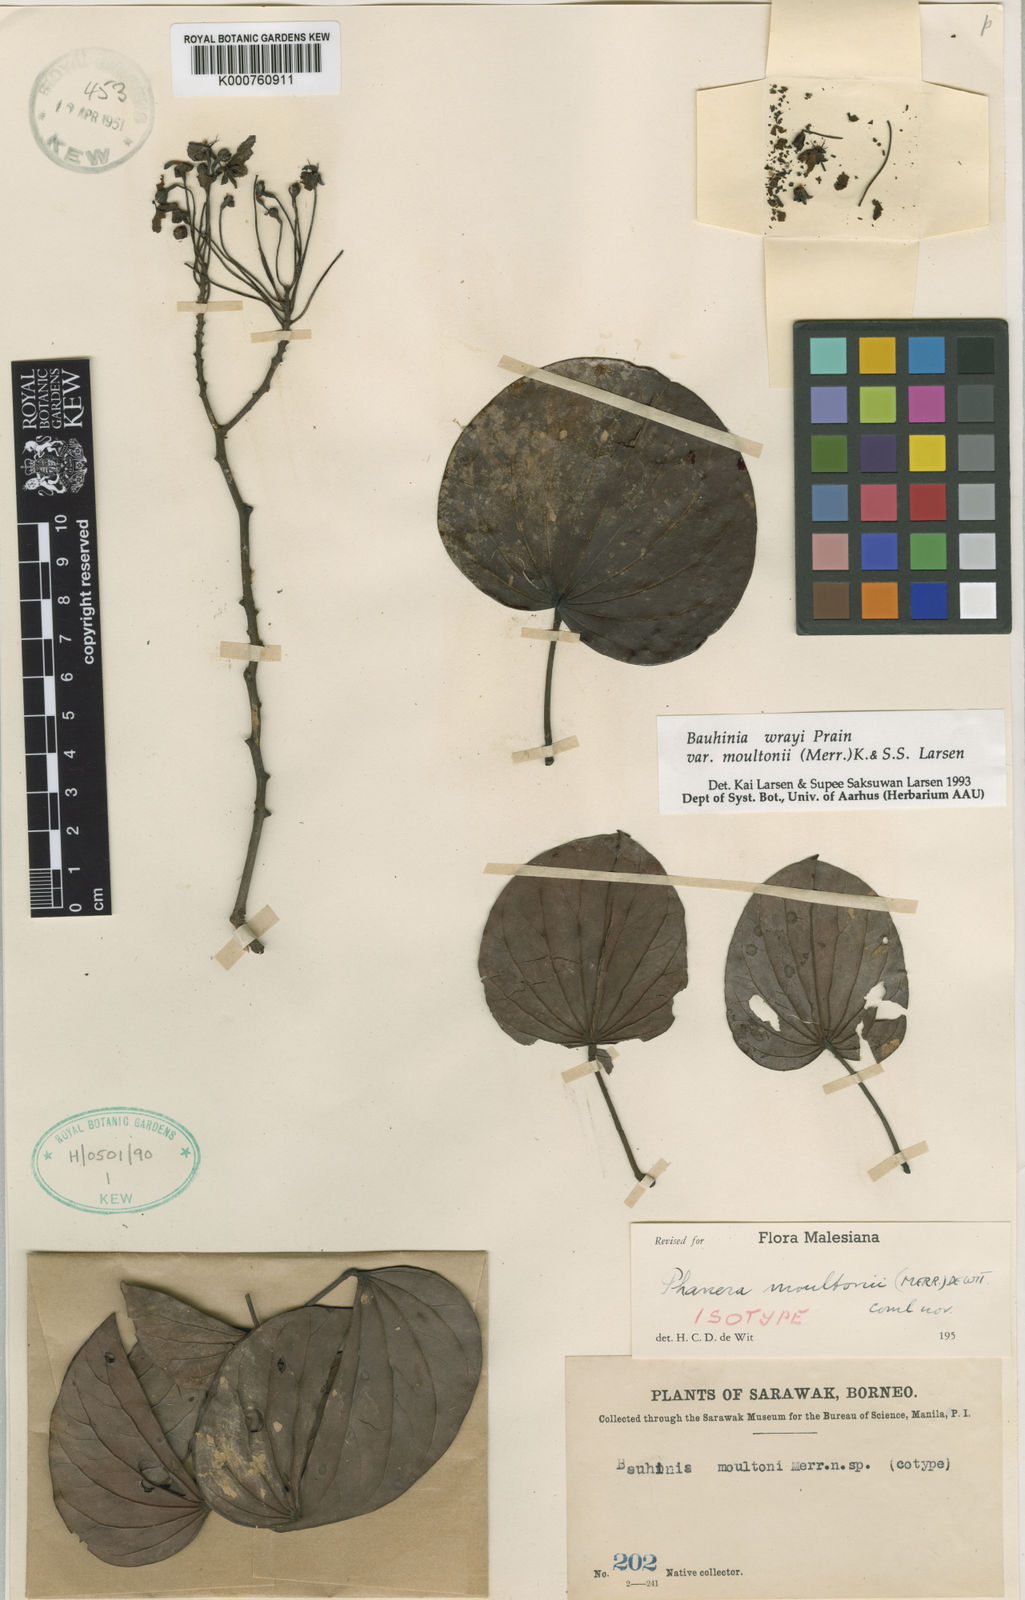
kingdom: Plantae
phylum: Tracheophyta
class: Magnoliopsida
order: Fabales
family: Fabaceae
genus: Phanera
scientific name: Phanera wrayi
